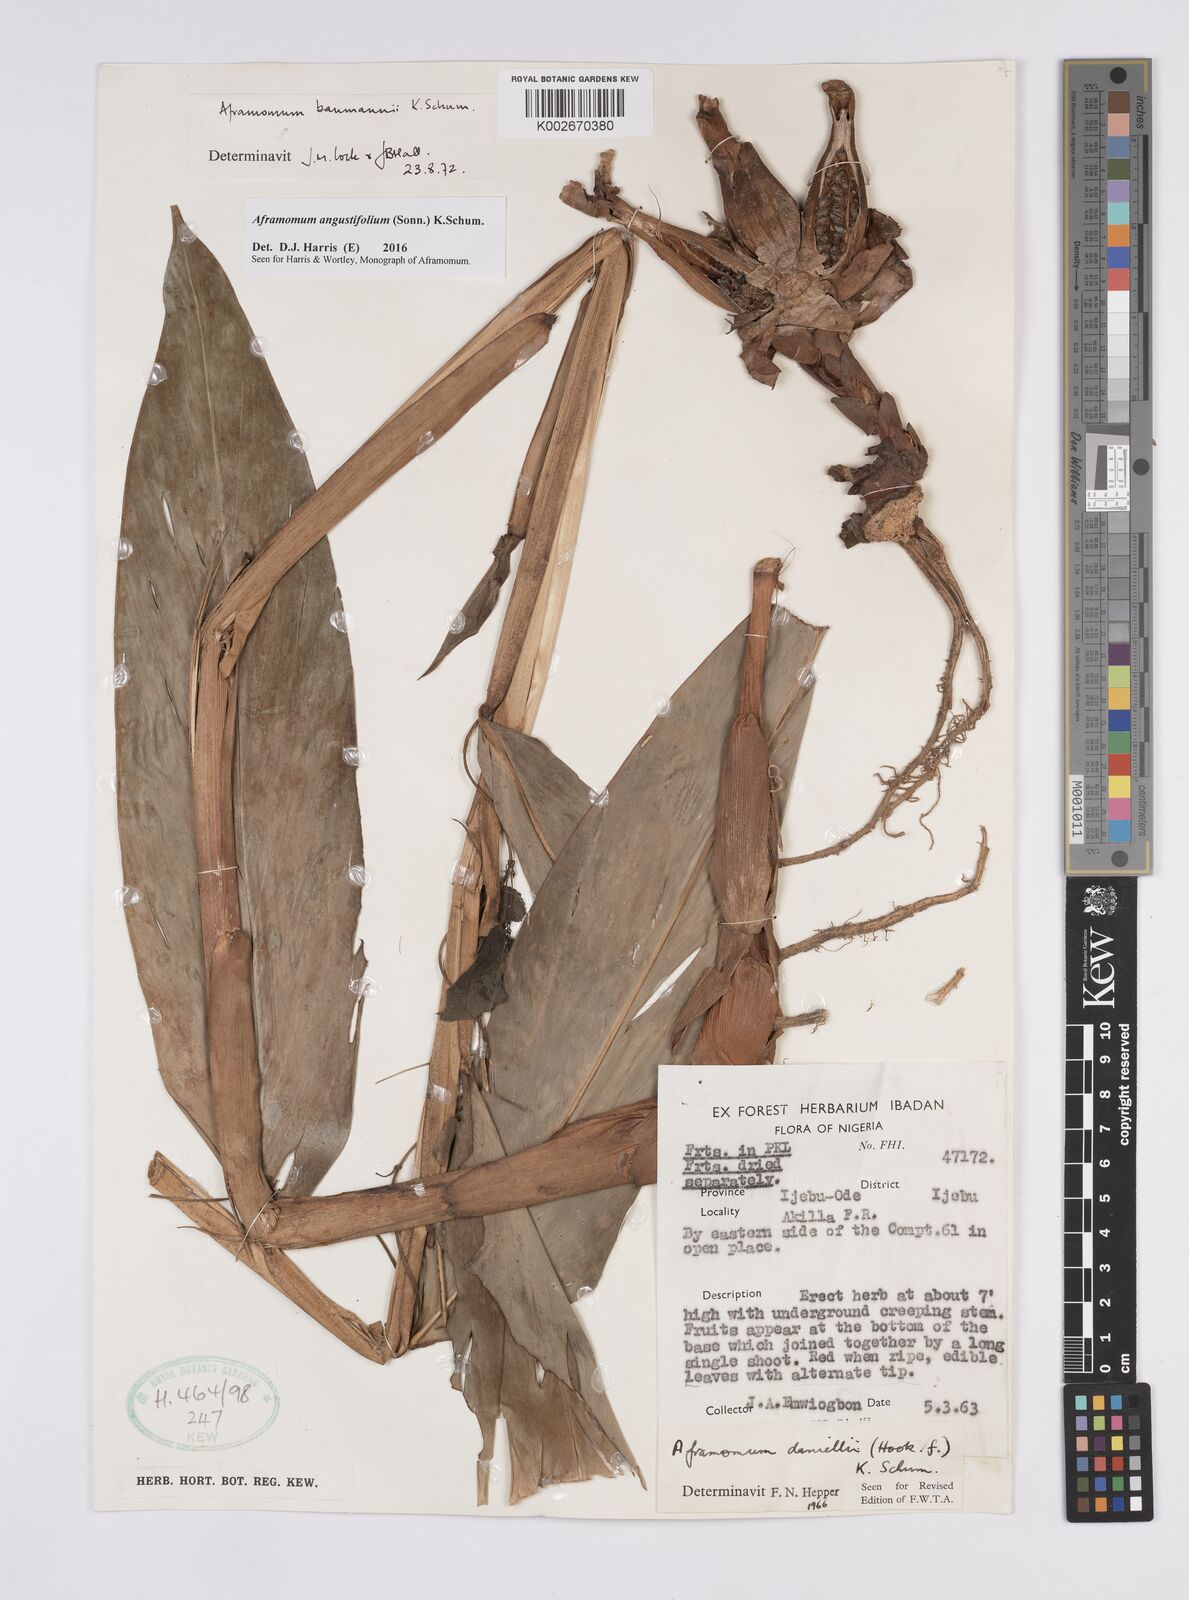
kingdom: Plantae
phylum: Tracheophyta
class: Liliopsida
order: Zingiberales
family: Zingiberaceae
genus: Aframomum
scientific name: Aframomum angustifolium
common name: Guinea grains
